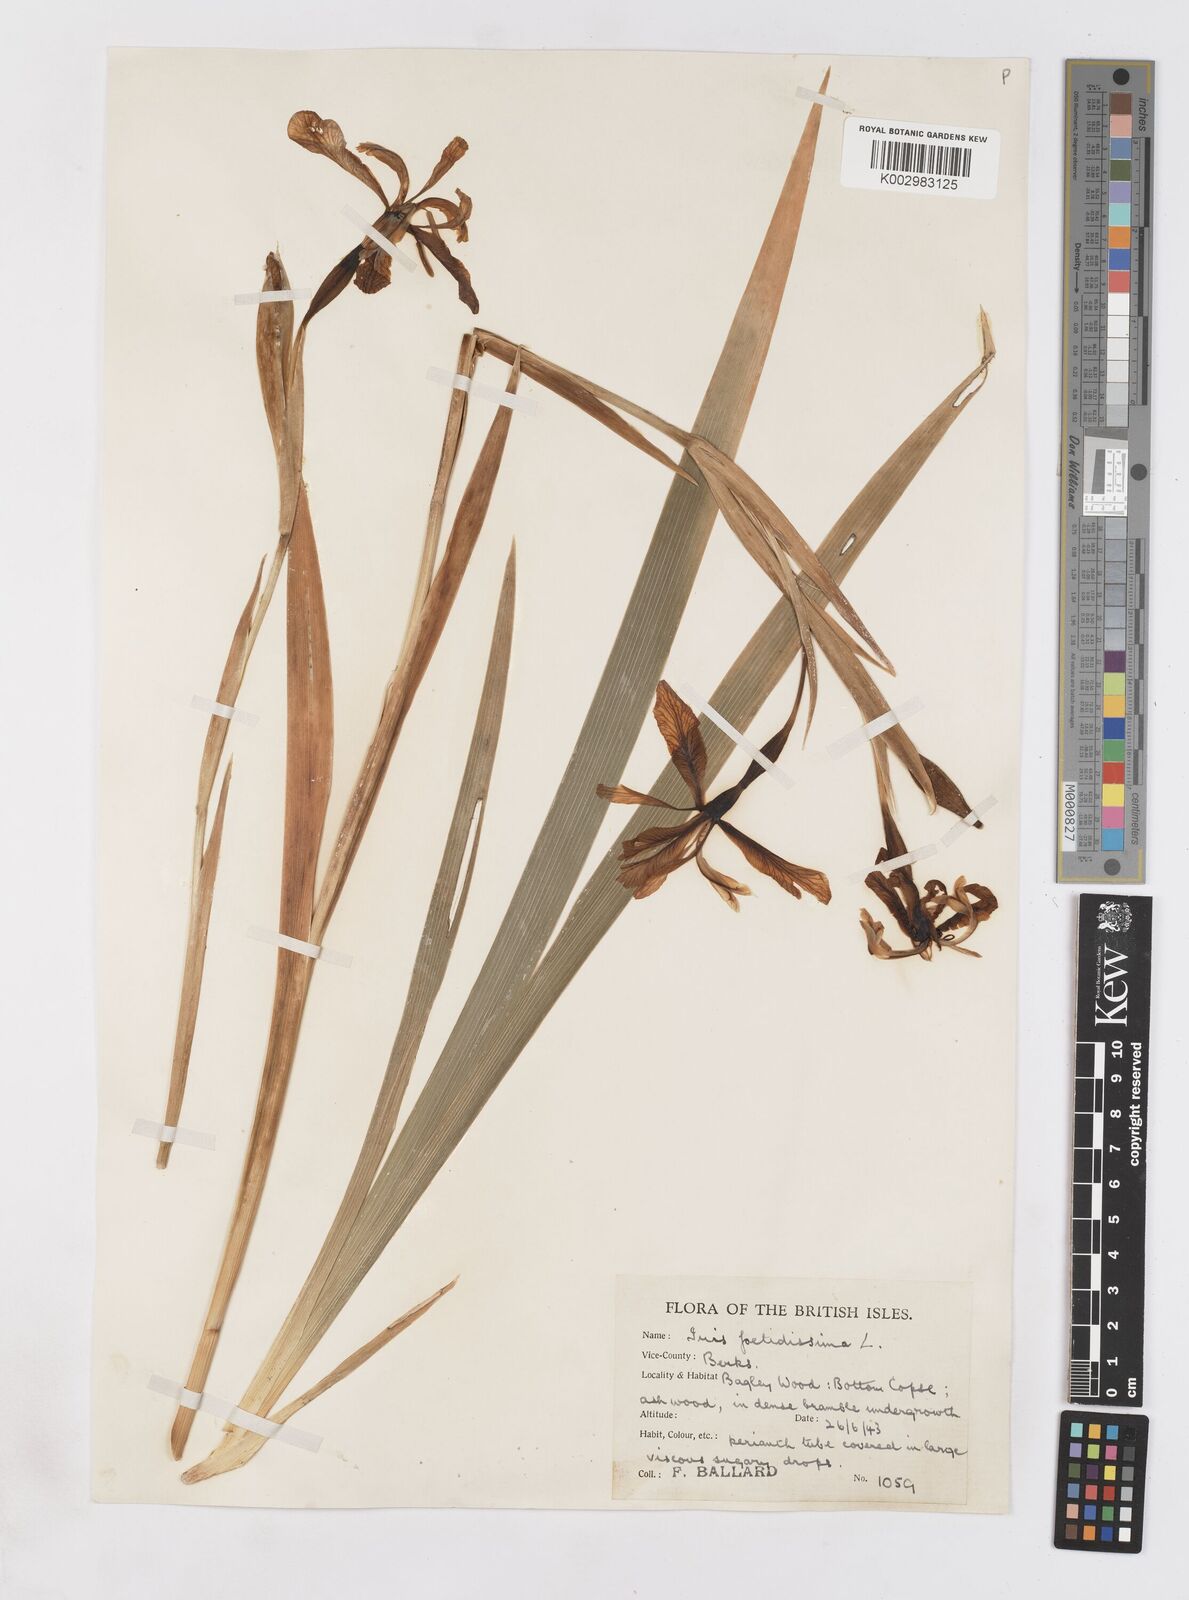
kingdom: Plantae
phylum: Tracheophyta
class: Liliopsida
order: Asparagales
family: Iridaceae
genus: Iris
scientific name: Iris foetidissima
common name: Stinking iris
